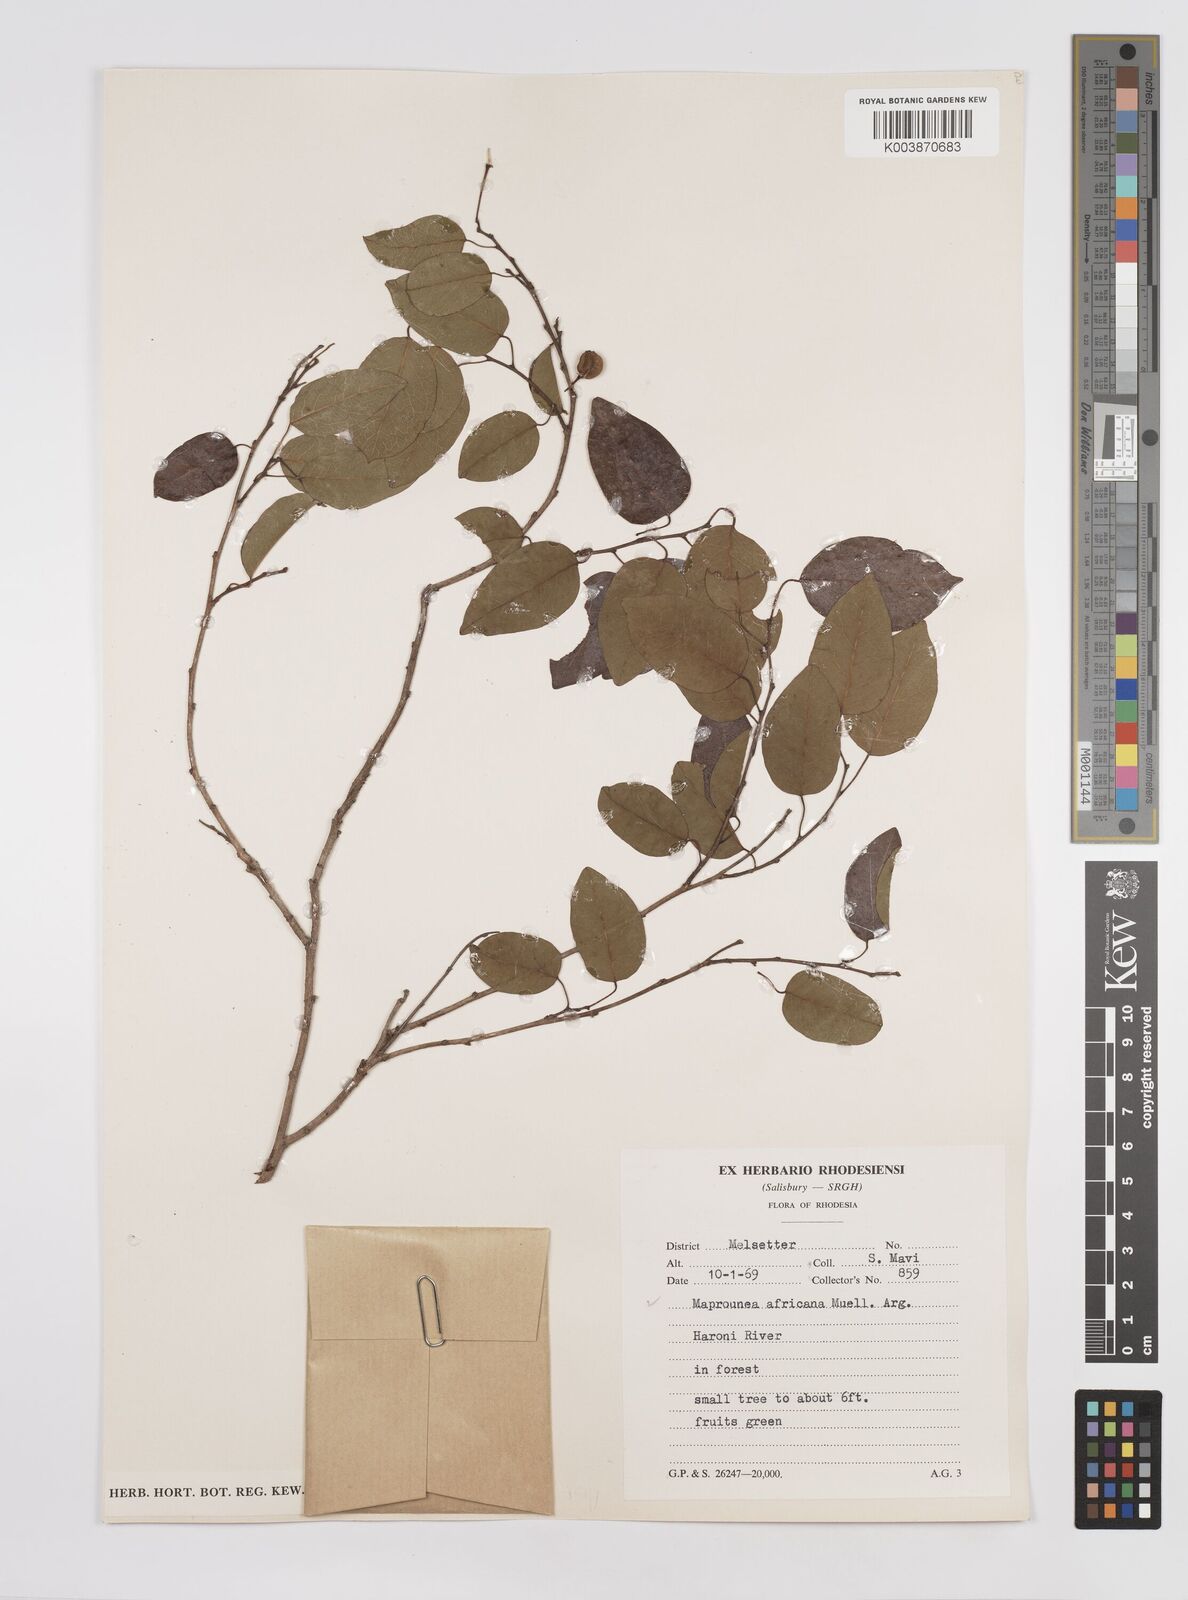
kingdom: Plantae
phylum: Tracheophyta
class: Magnoliopsida
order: Malpighiales
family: Euphorbiaceae
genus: Maprounea
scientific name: Maprounea africana
